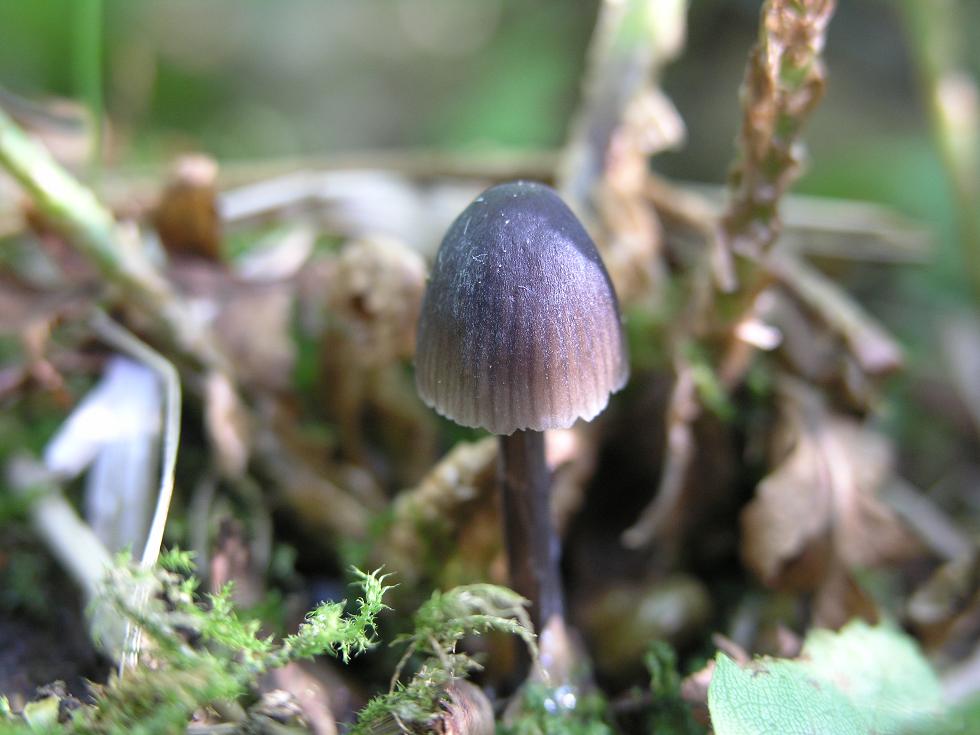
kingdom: Fungi
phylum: Basidiomycota
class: Agaricomycetes
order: Agaricales
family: Mycenaceae
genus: Mycena
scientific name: Mycena abramsii
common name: sommer-huesvamp
